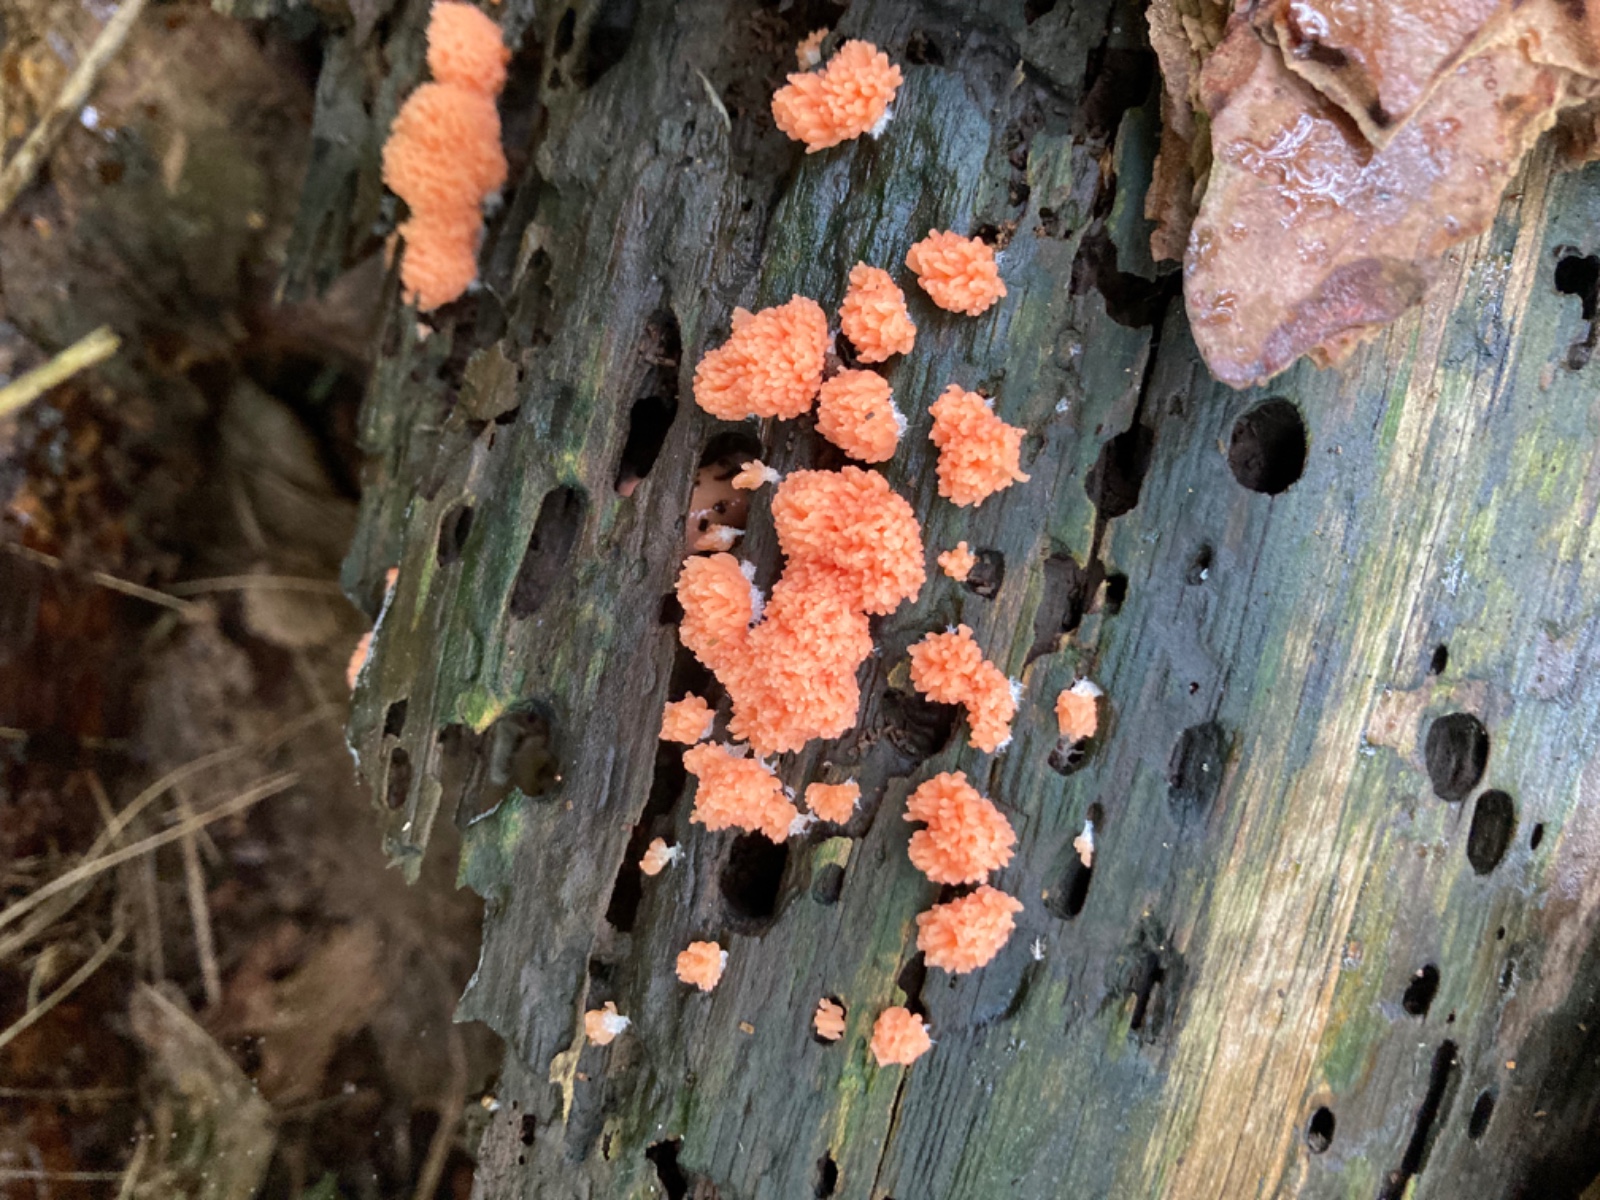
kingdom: Protozoa
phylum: Mycetozoa
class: Myxomycetes
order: Cribrariales
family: Tubiferaceae
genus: Tubifera
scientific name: Tubifera ferruginosa
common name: kanel-støvrør
